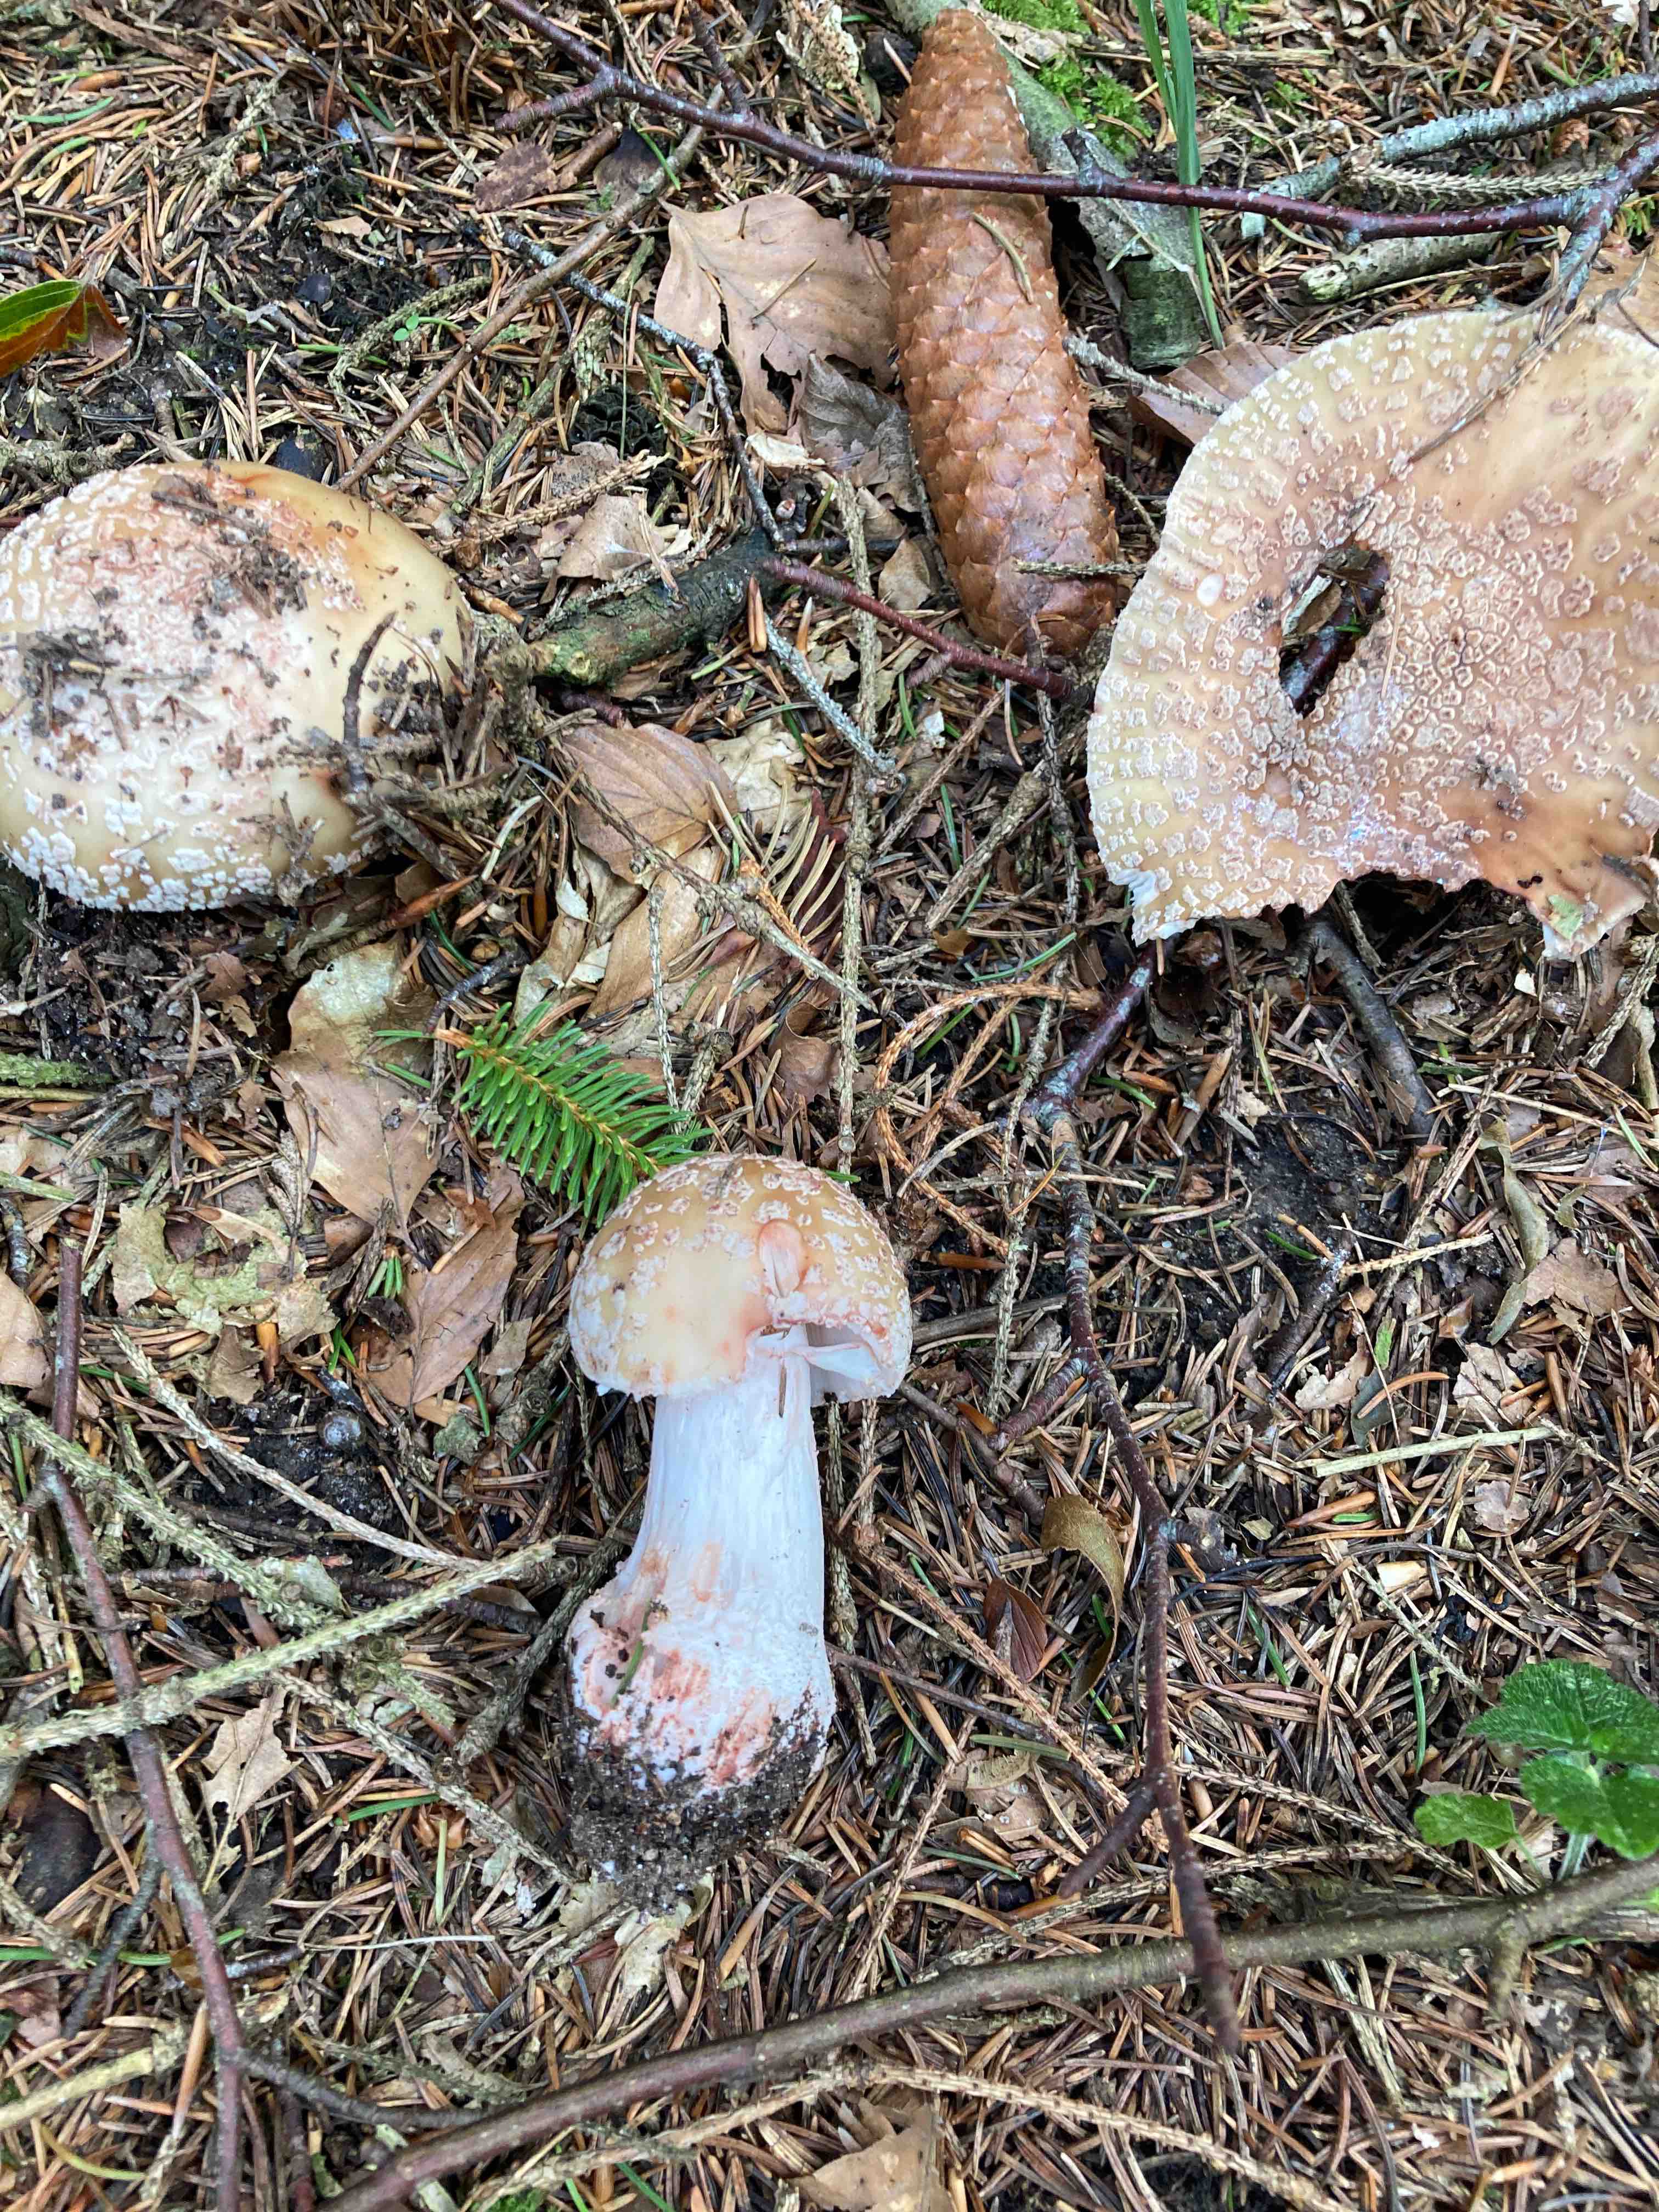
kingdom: Fungi
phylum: Basidiomycota
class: Agaricomycetes
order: Agaricales
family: Amanitaceae
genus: Amanita
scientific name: Amanita rubescens
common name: rødmende fluesvamp
